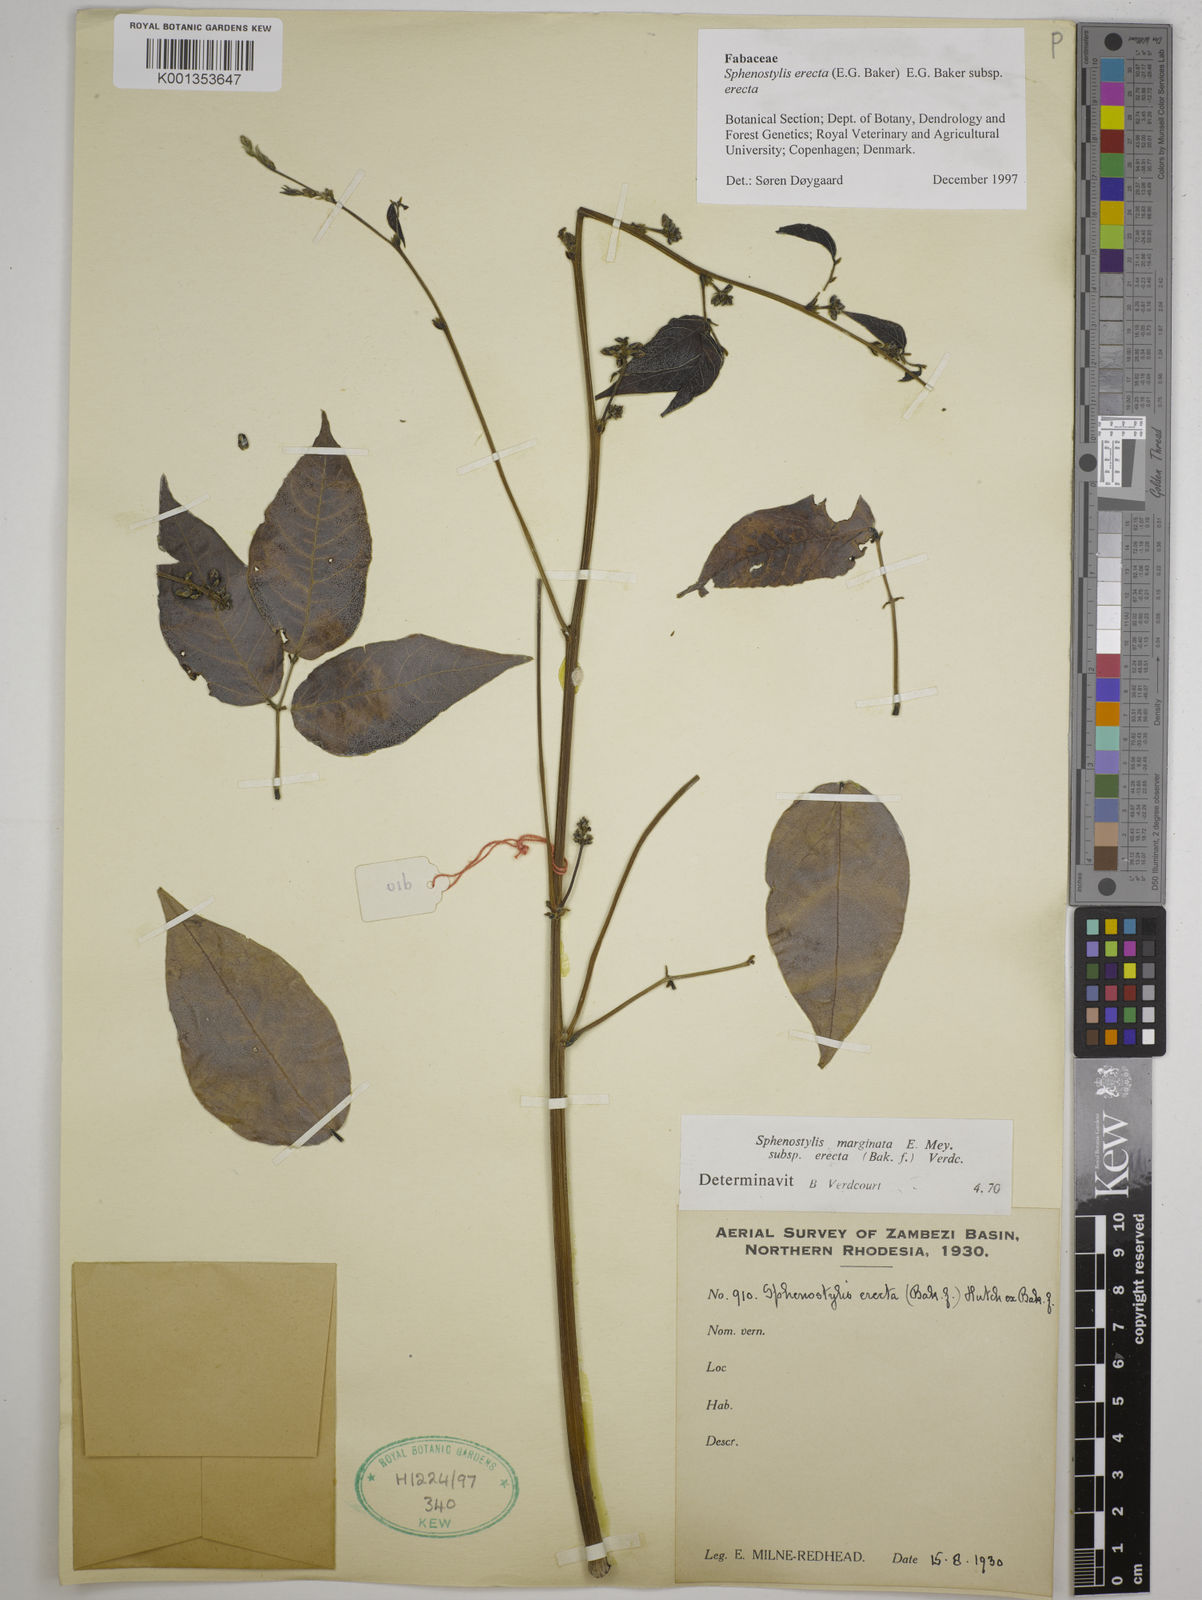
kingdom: Plantae
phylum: Tracheophyta
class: Magnoliopsida
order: Fabales
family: Fabaceae
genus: Sphenostylis
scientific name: Sphenostylis erecta
